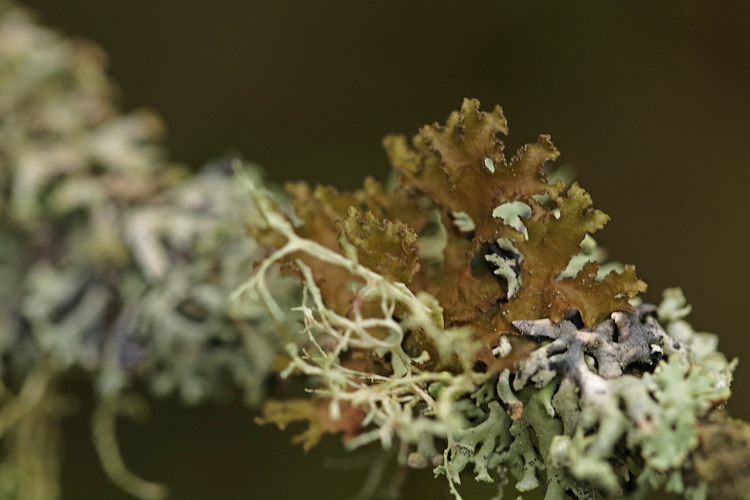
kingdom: Fungi
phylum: Ascomycota
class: Lecanoromycetes
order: Lecanorales
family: Parmeliaceae
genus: Nephromopsis
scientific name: Nephromopsis chlorophylla
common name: olivenbrun kruslav
